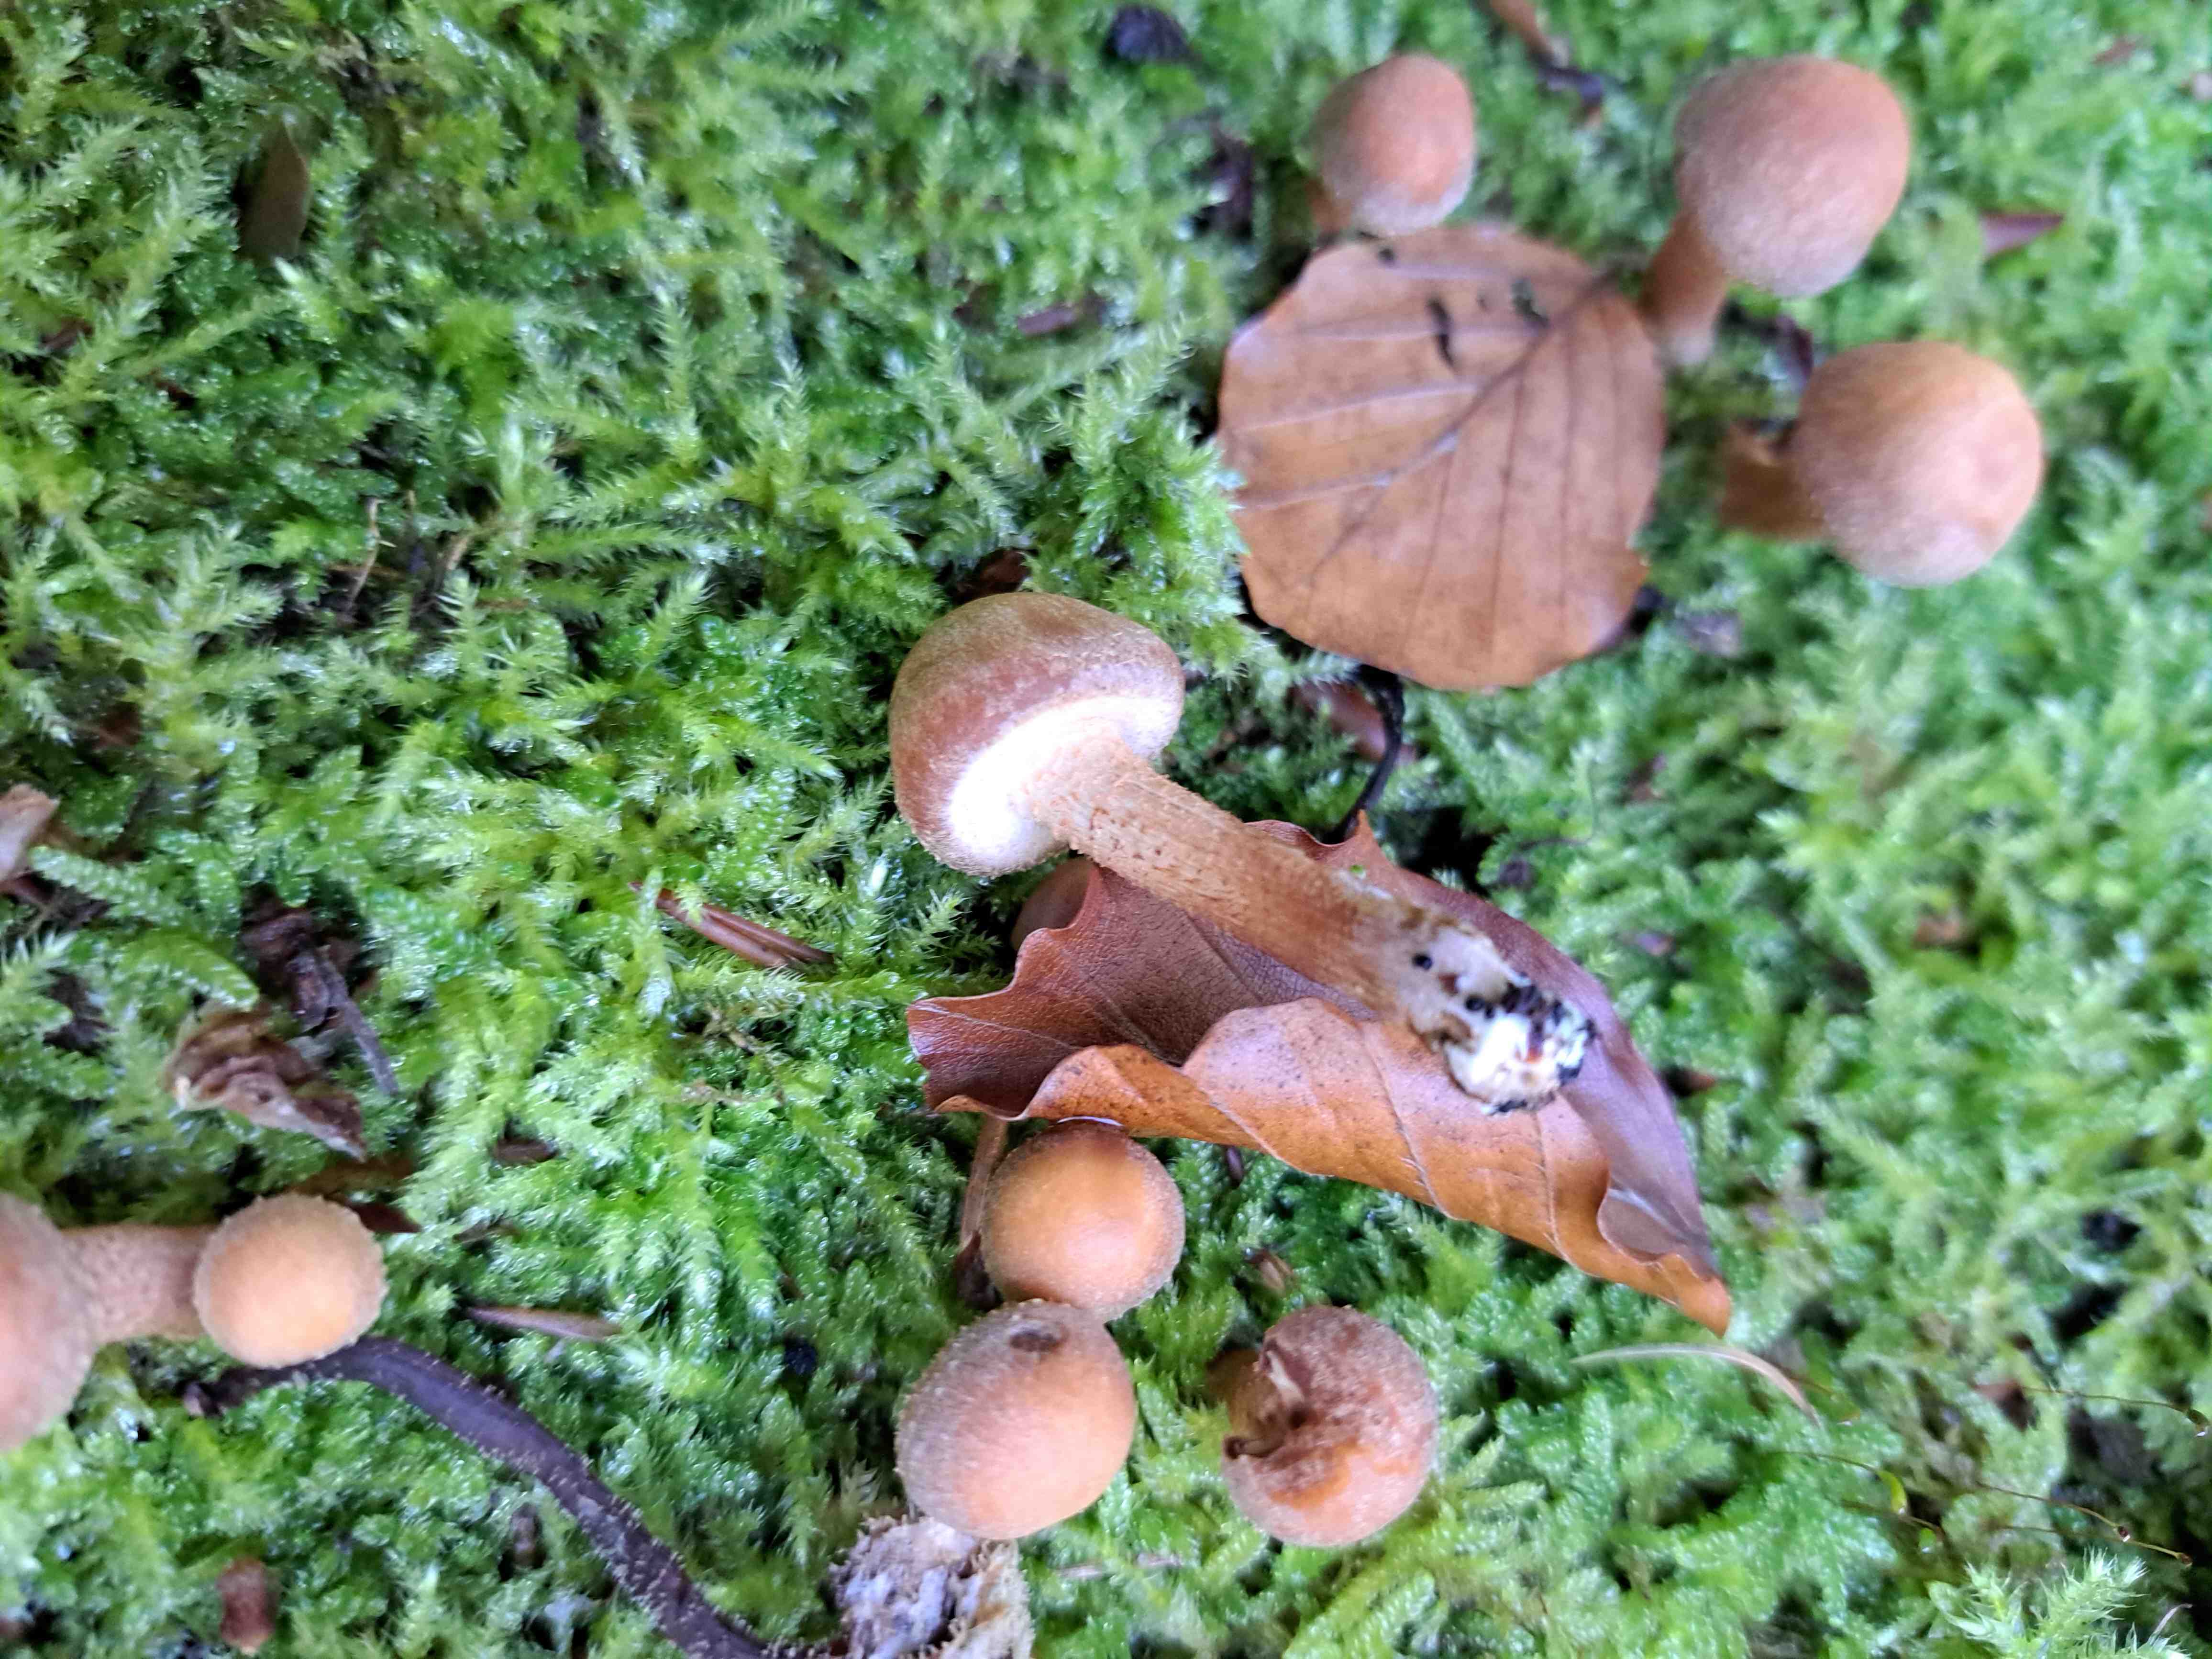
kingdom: Fungi
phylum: Basidiomycota
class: Agaricomycetes
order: Agaricales
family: Lycoperdaceae
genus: Apioperdon
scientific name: Apioperdon pyriforme
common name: pære-støvbold
